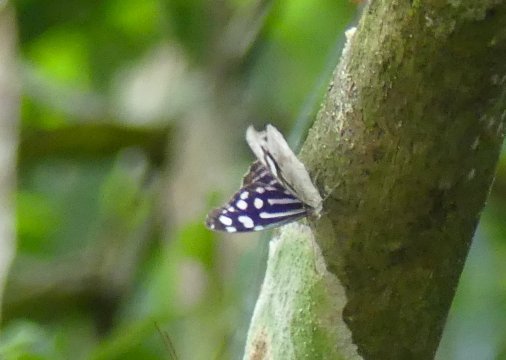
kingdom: Animalia
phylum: Arthropoda
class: Insecta
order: Lepidoptera
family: Nymphalidae
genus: Myscelia
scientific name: Myscelia cyaniris
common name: Whitened Bluewing
